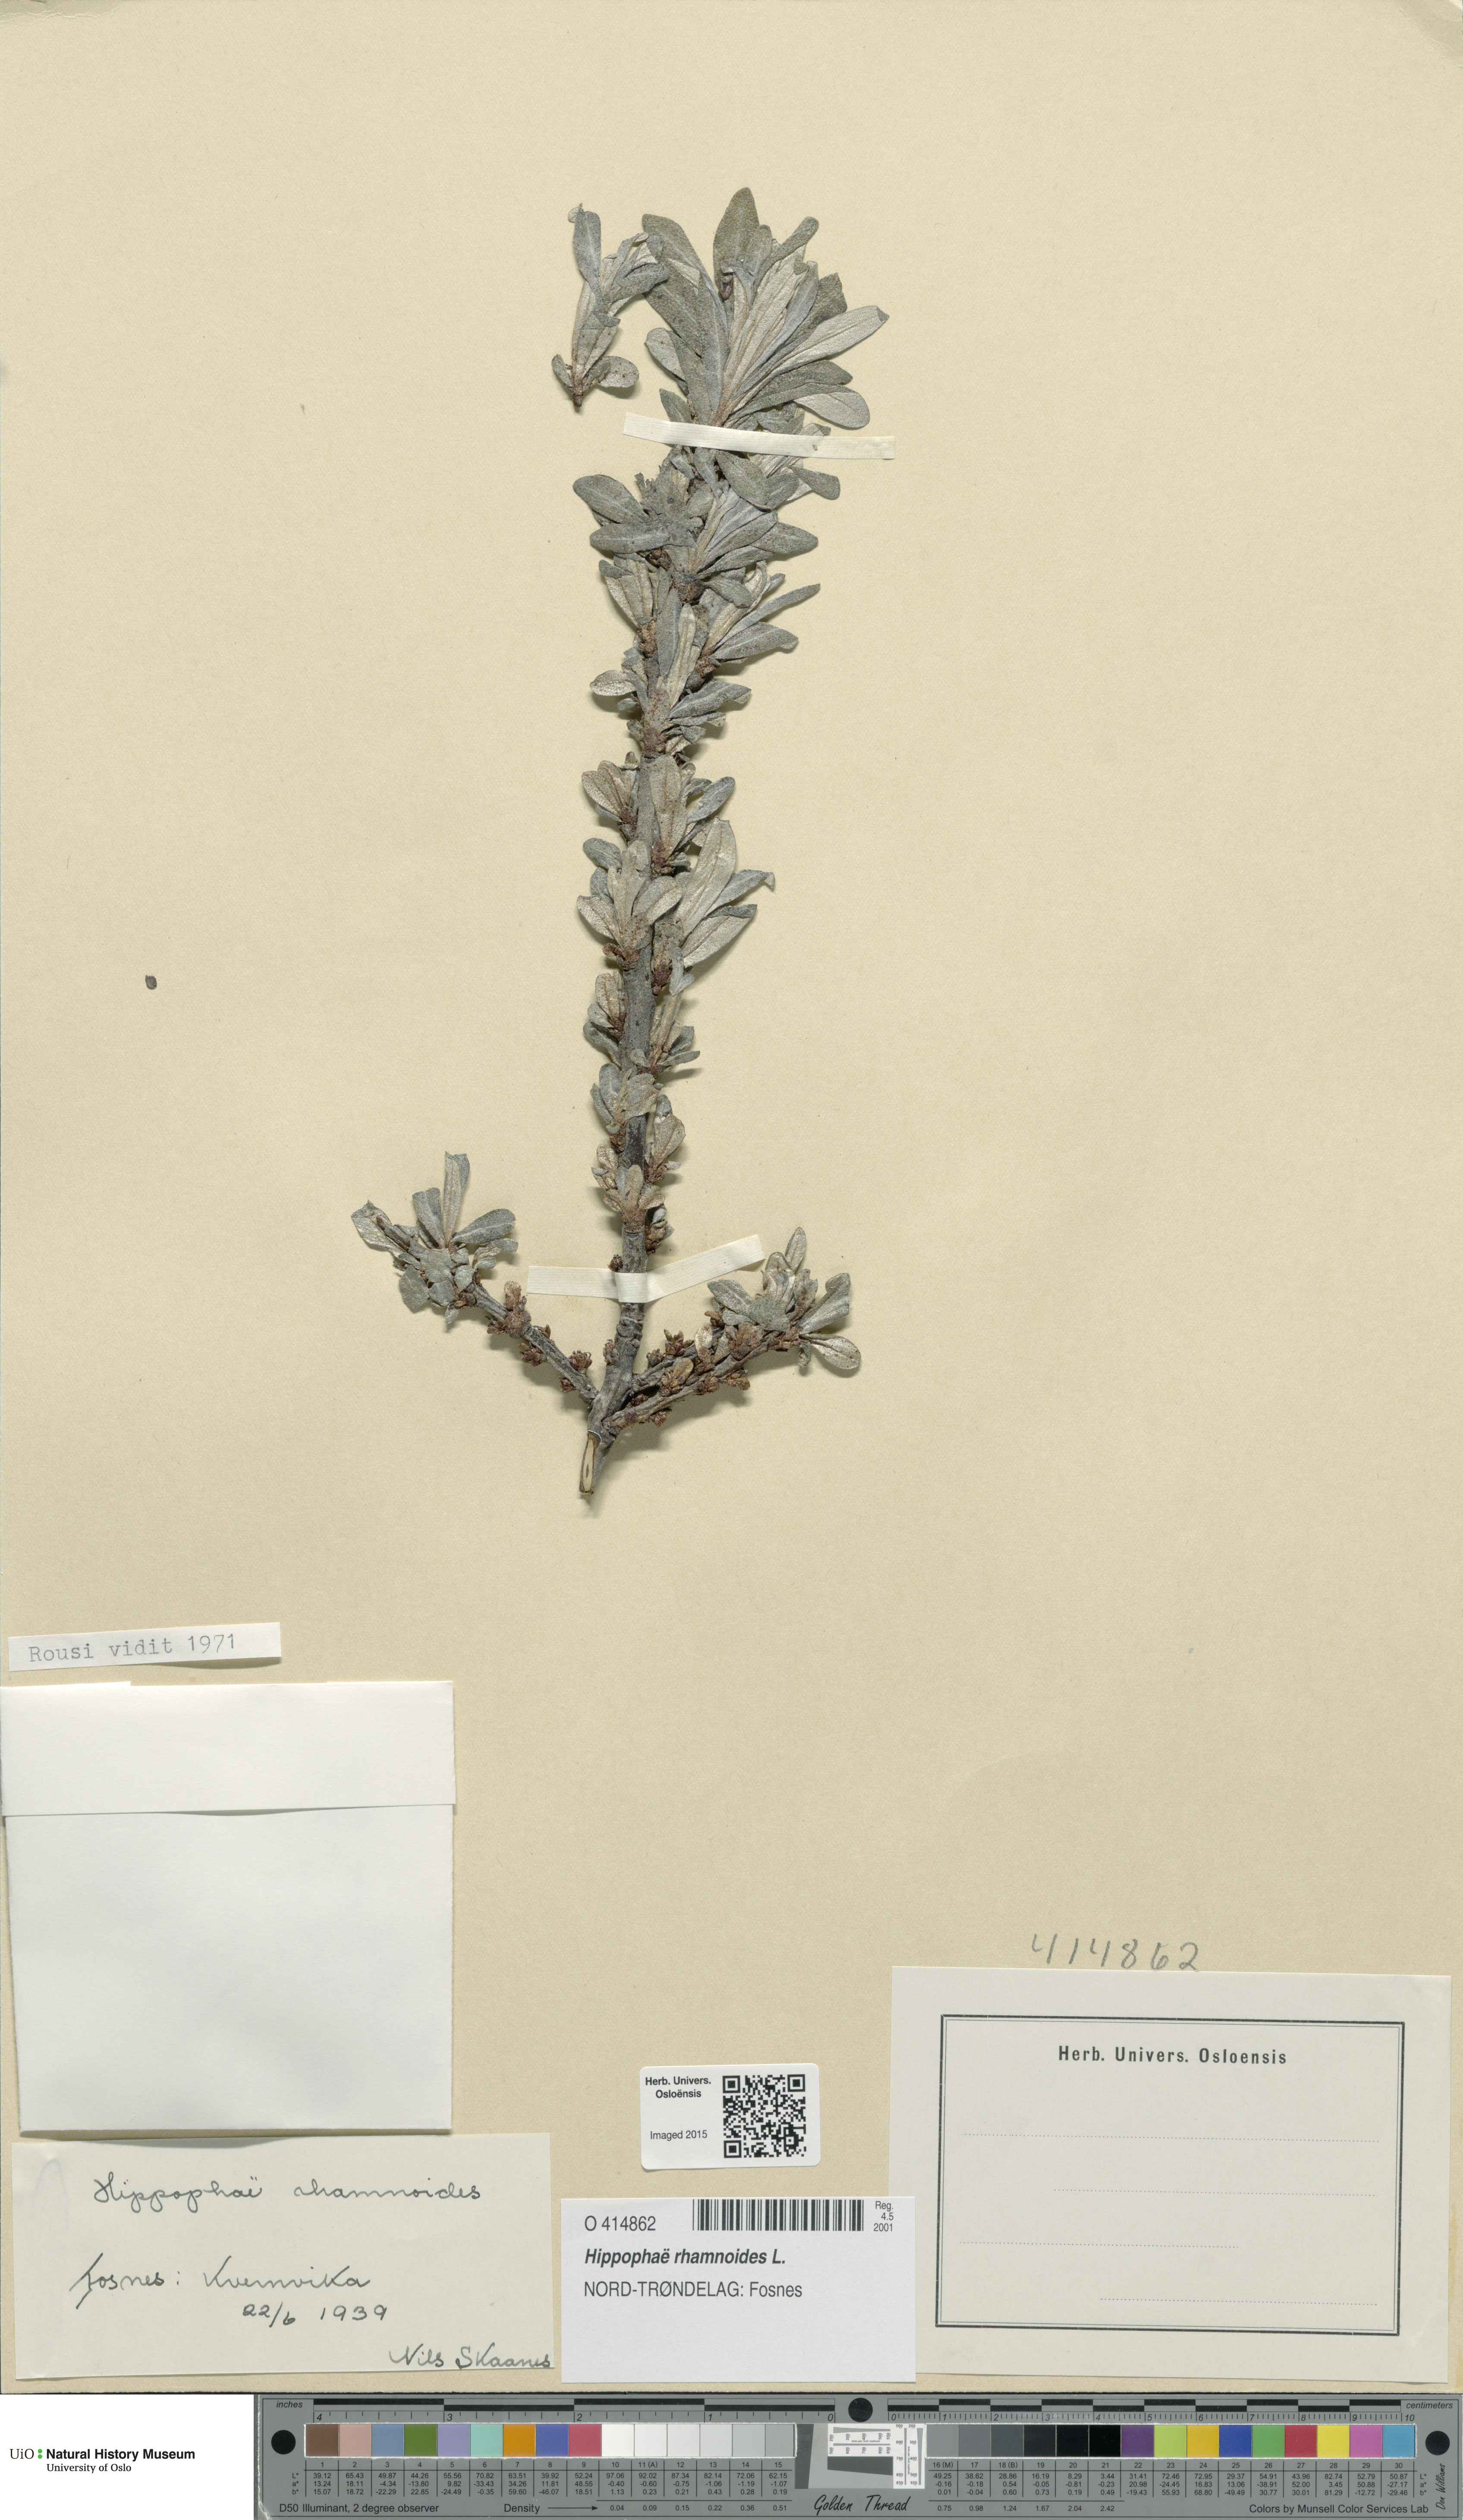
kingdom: Plantae
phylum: Tracheophyta
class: Magnoliopsida
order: Rosales
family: Elaeagnaceae
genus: Hippophae
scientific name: Hippophae rhamnoides
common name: Sea-buckthorn
